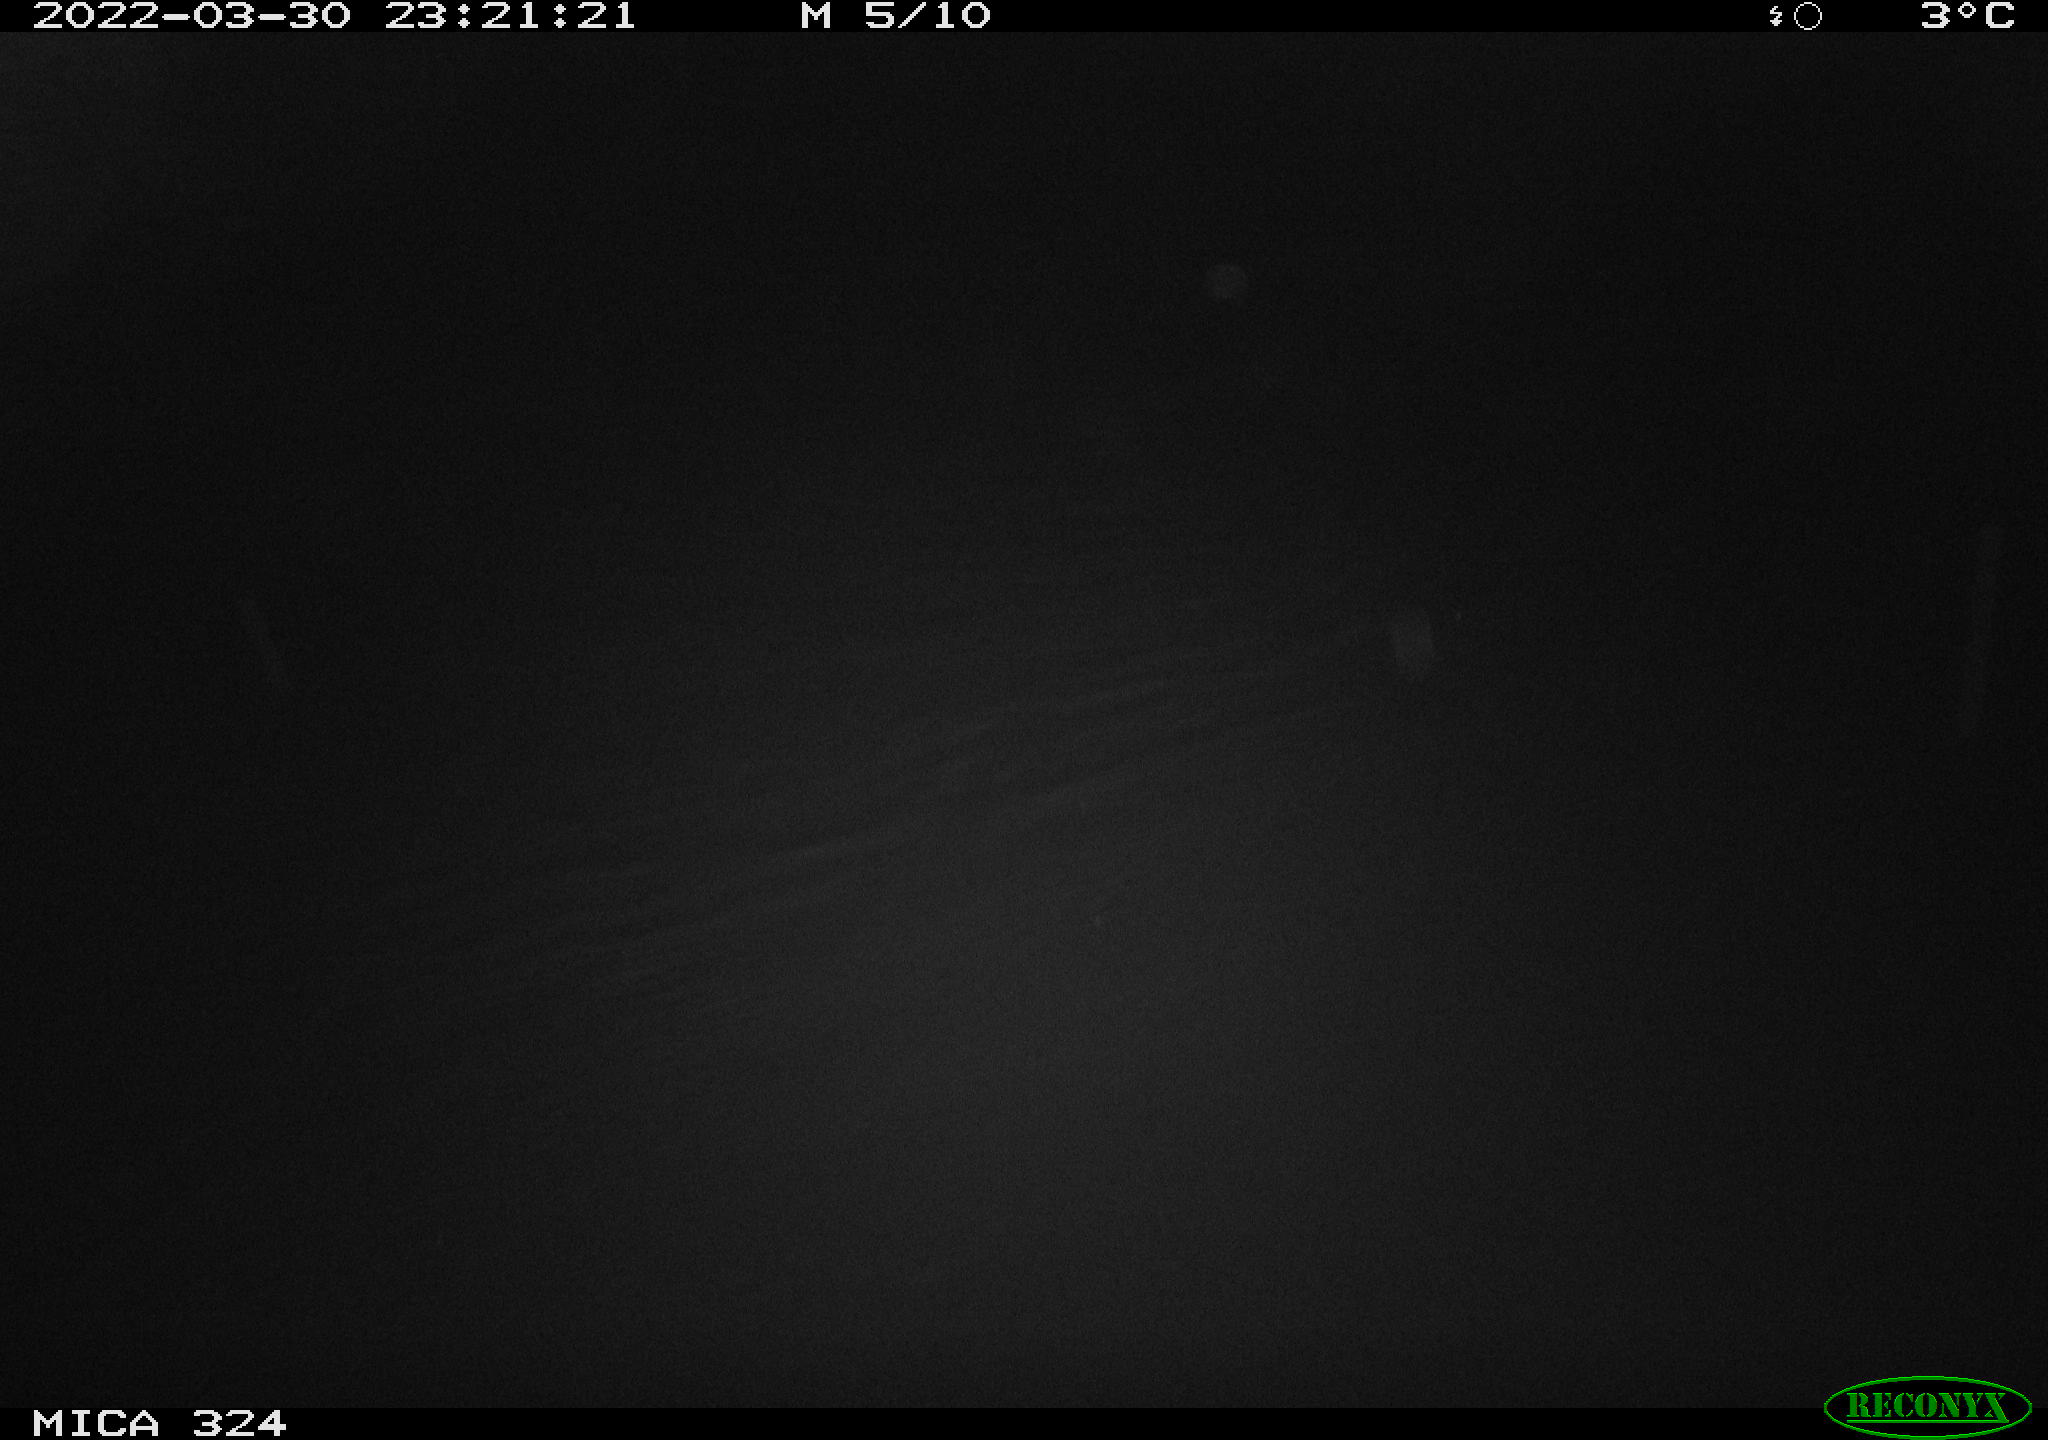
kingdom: Animalia
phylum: Chordata
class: Mammalia
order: Rodentia
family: Muridae
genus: Rattus
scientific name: Rattus norvegicus
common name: Brown rat
